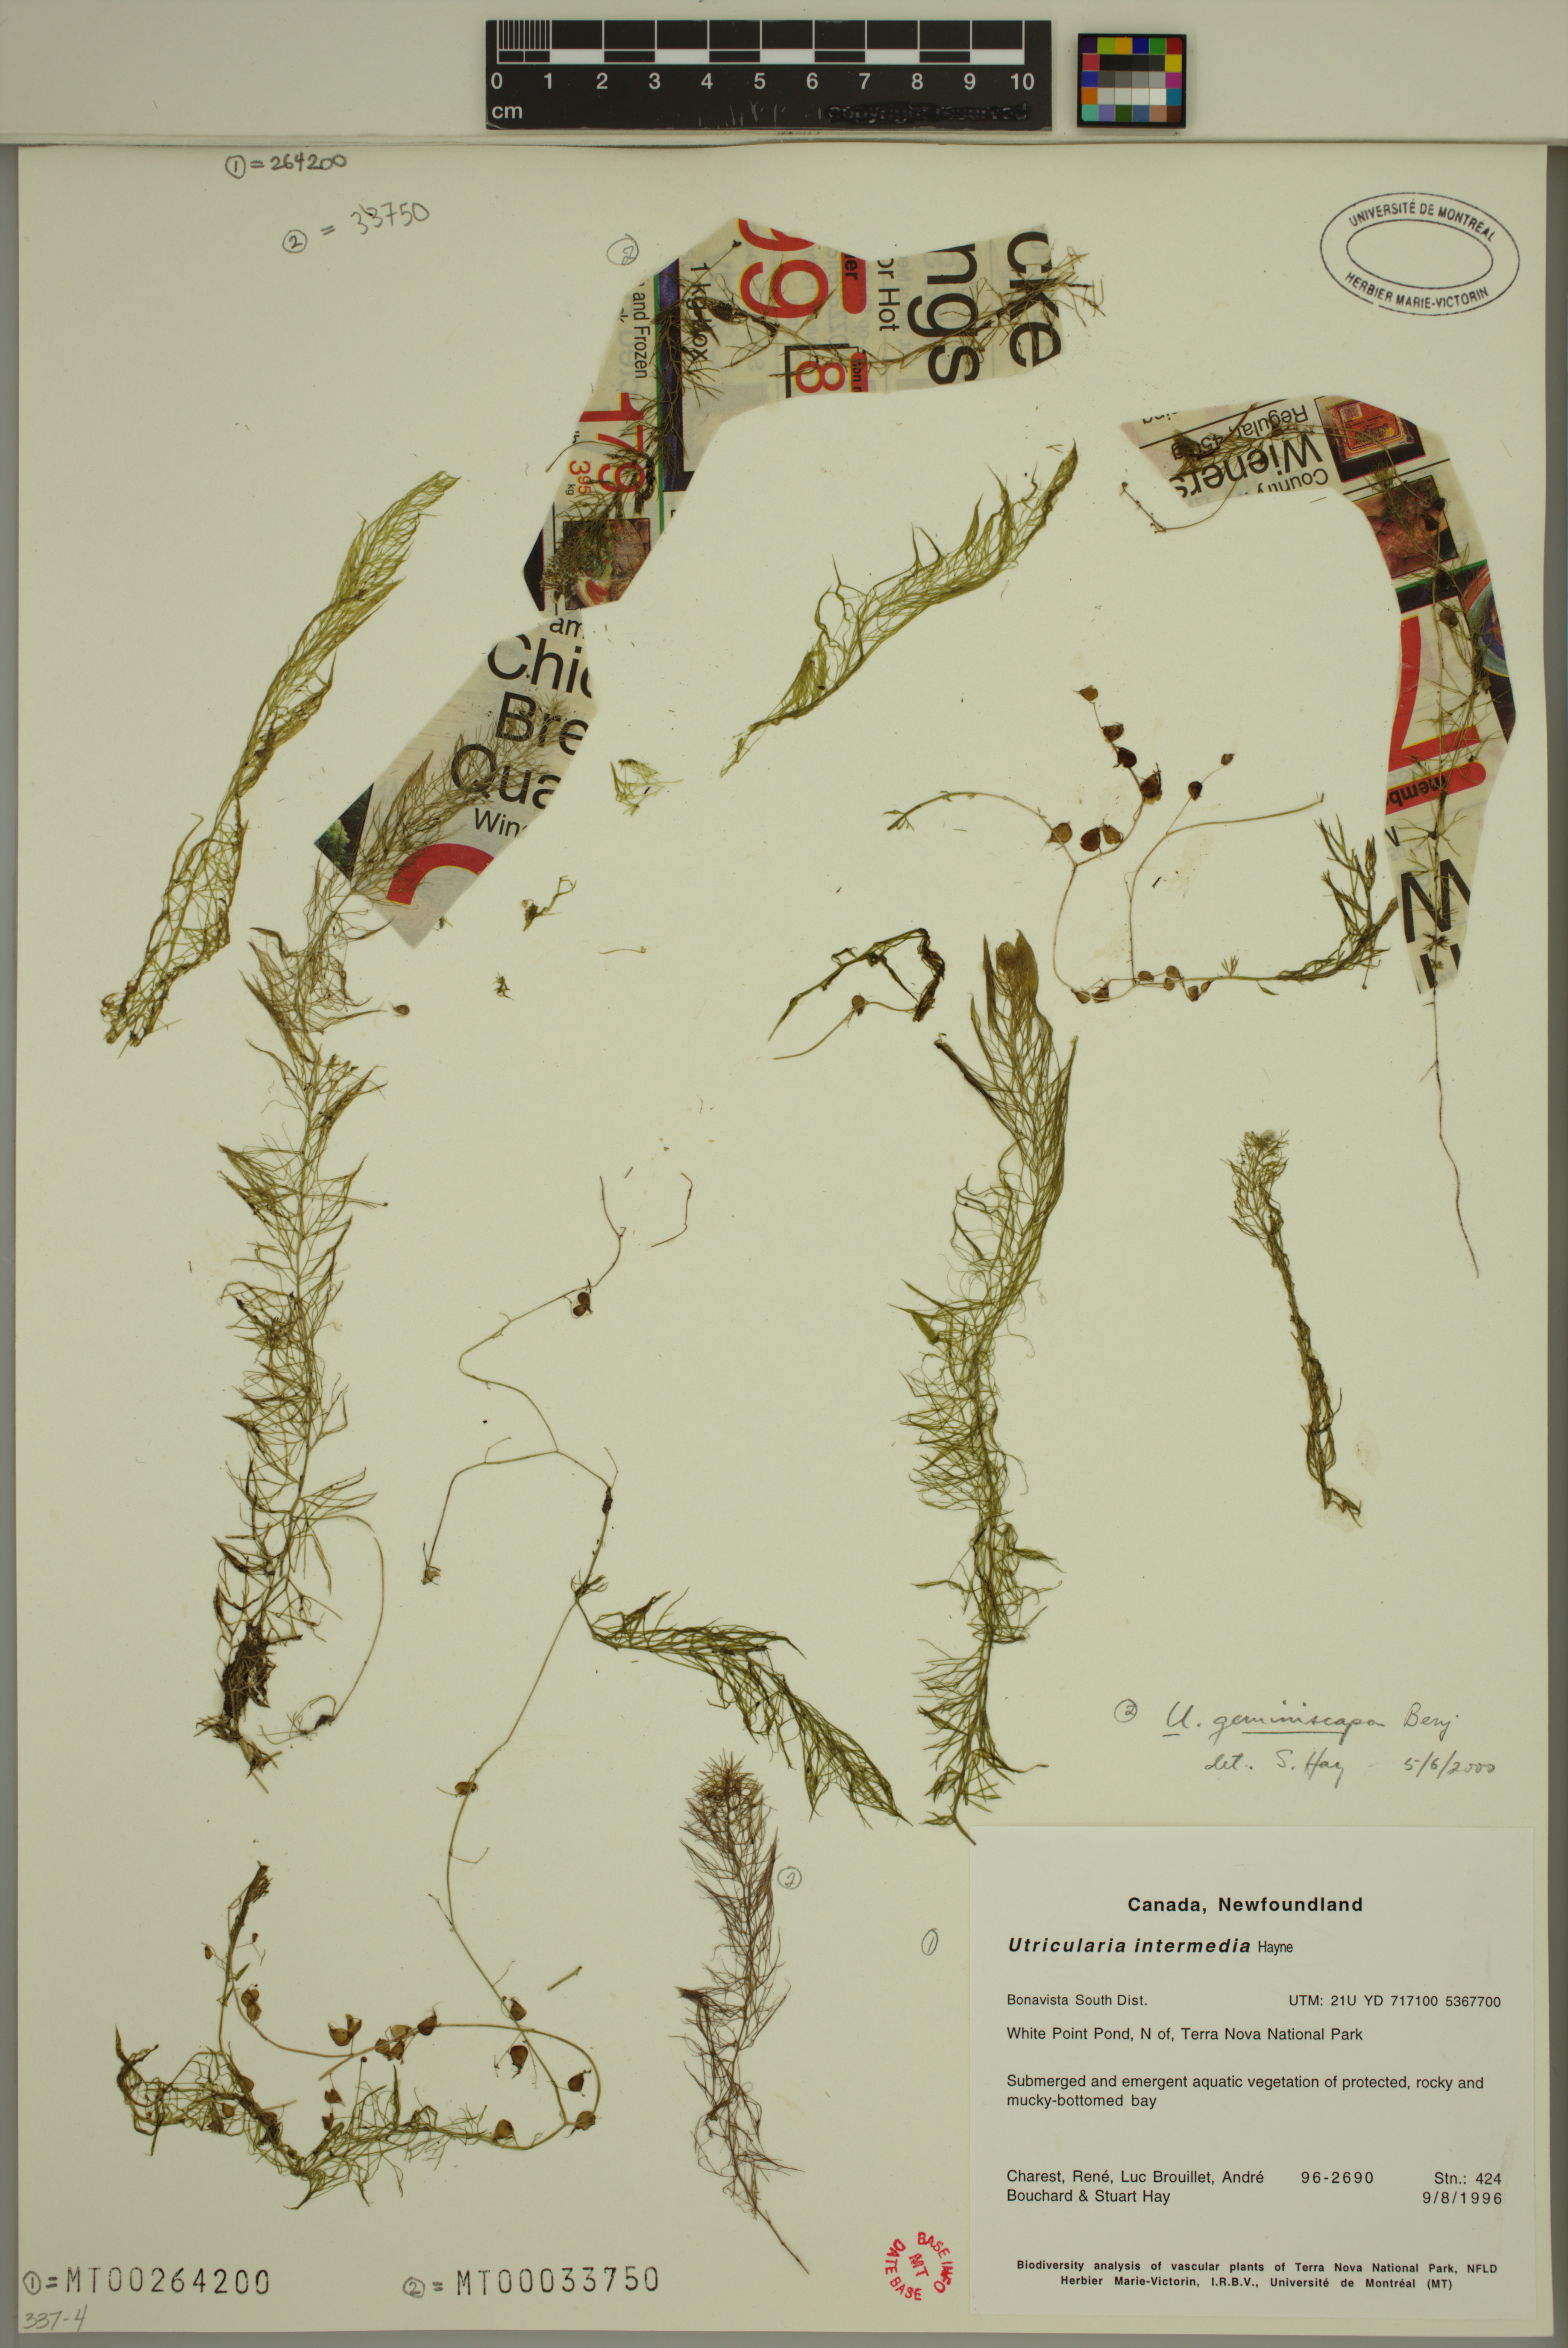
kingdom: Plantae
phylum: Tracheophyta
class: Magnoliopsida
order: Lamiales
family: Lentibulariaceae
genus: Utricularia
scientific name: Utricularia intermedia
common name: Intermediate bladderwort
